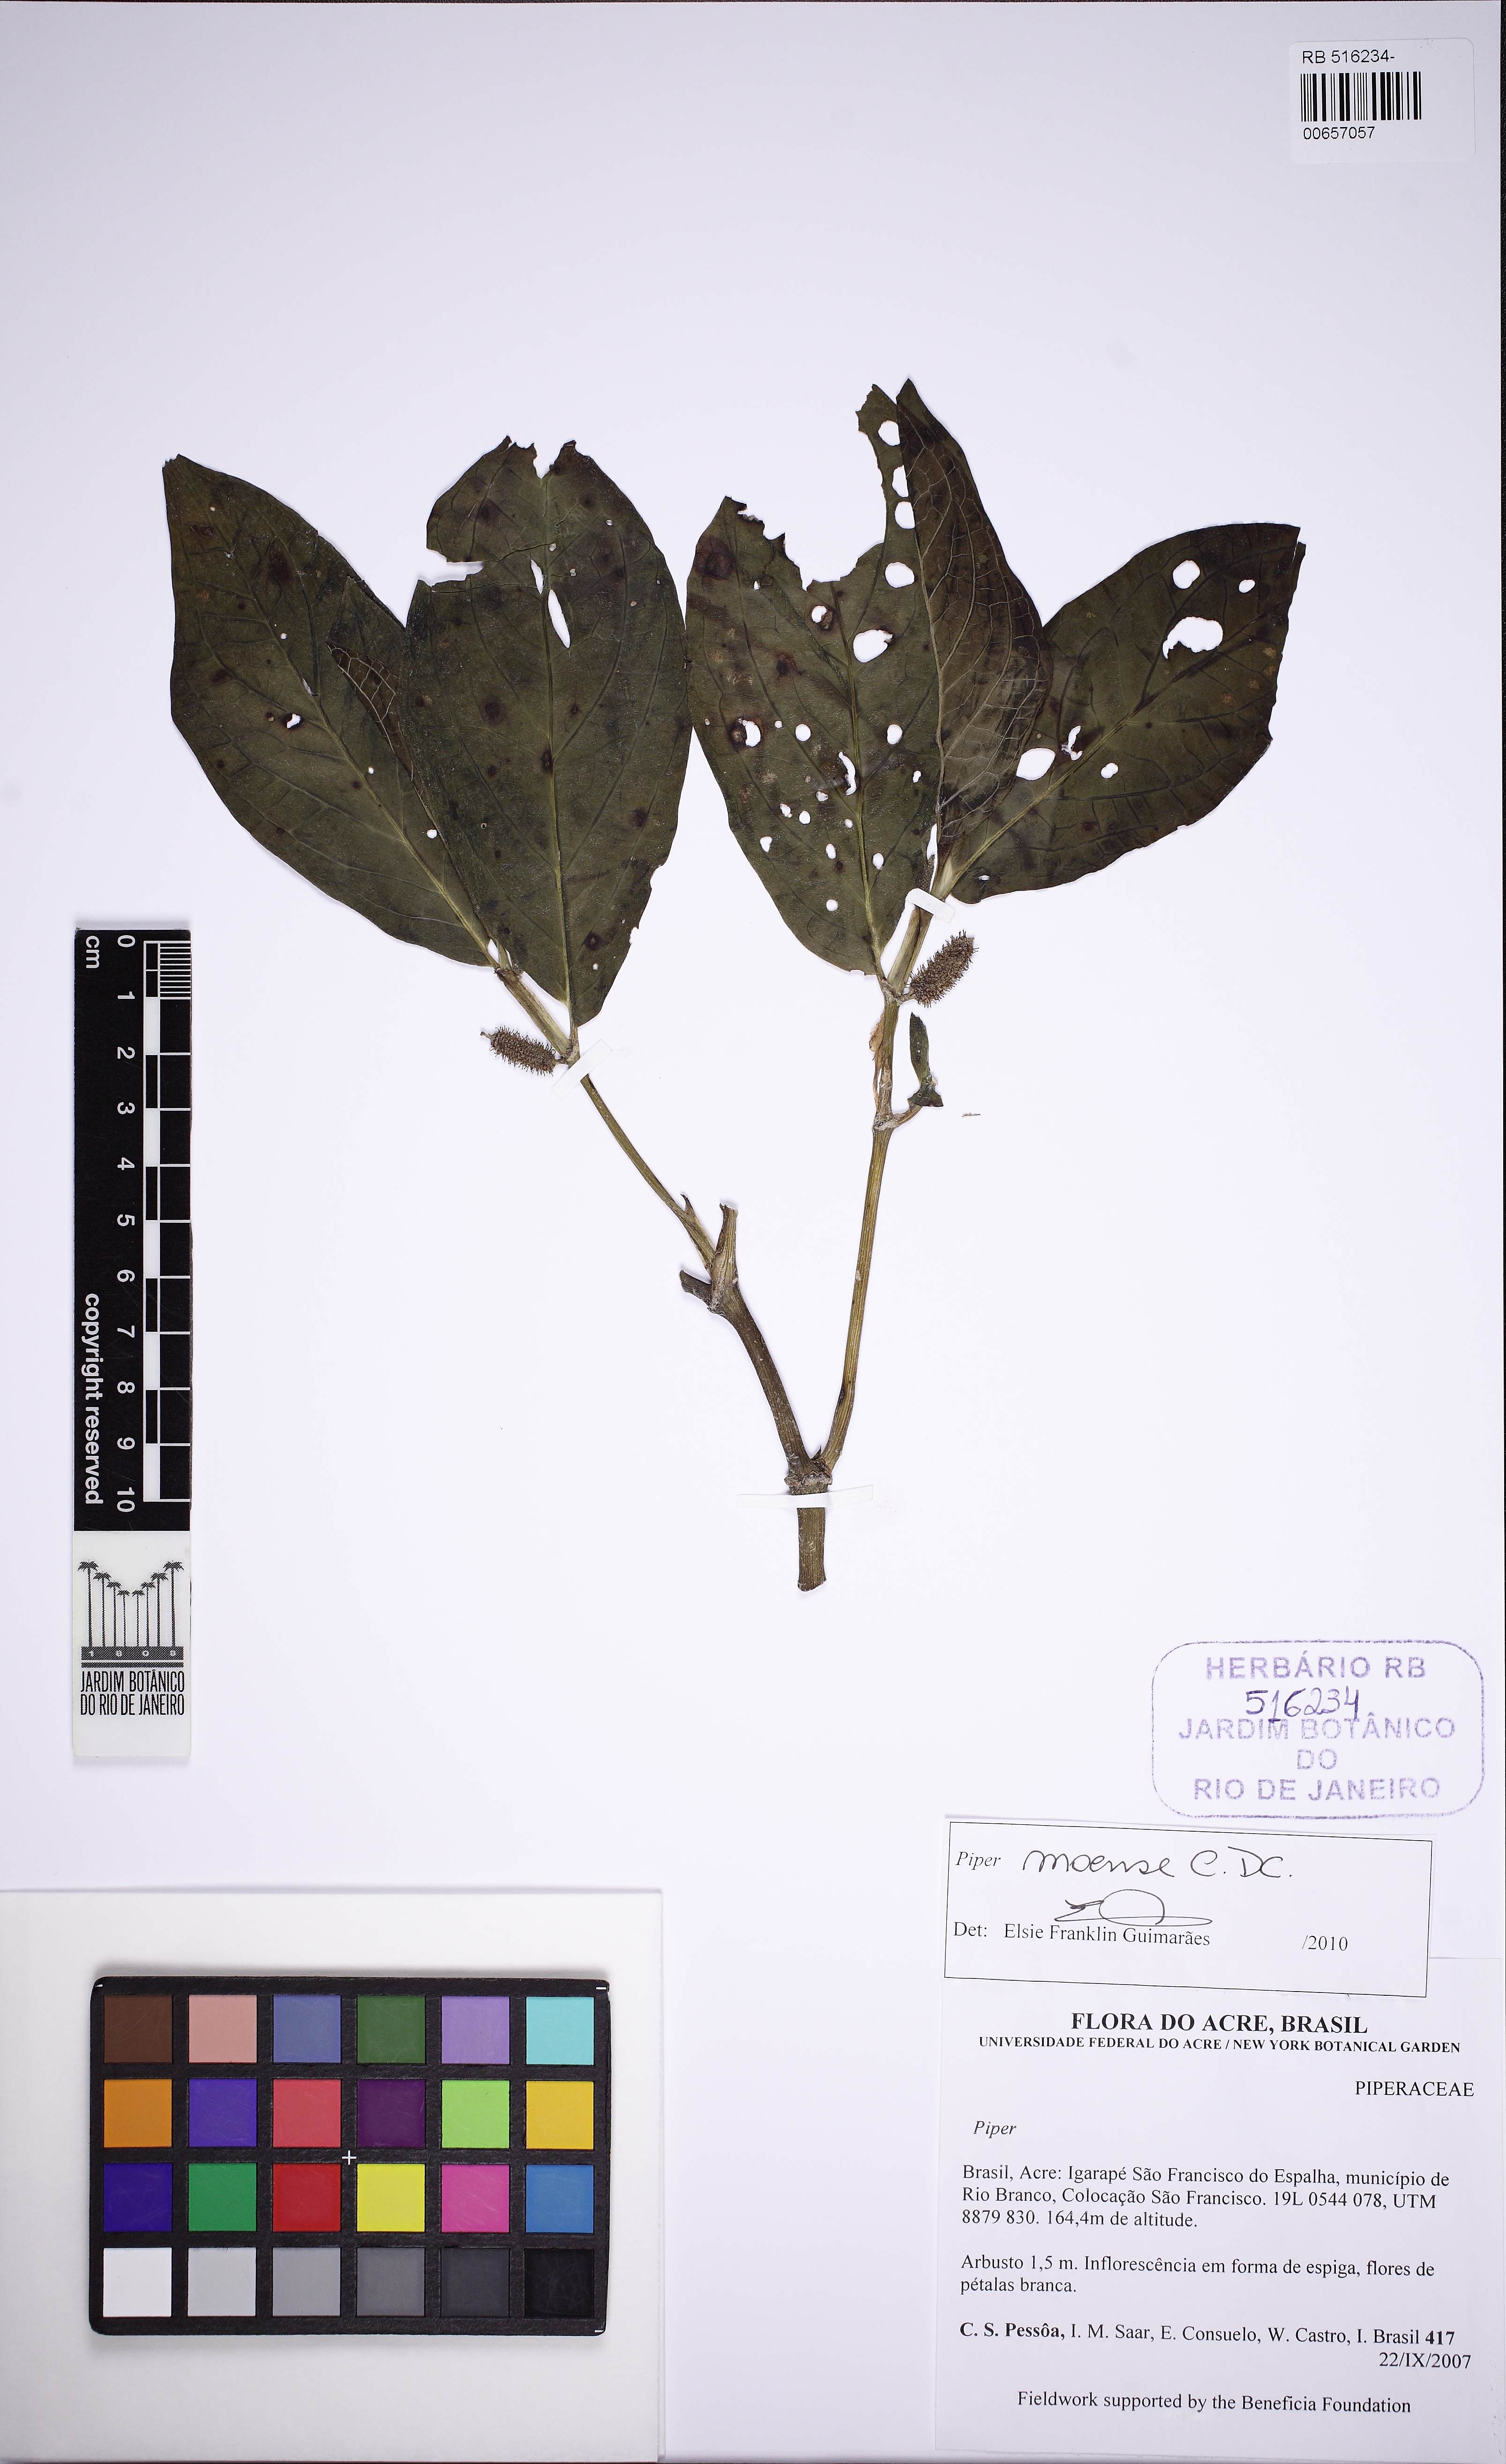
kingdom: Plantae
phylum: Tracheophyta
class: Magnoliopsida
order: Piperales
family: Piperaceae
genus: Piper
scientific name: Piper moense
